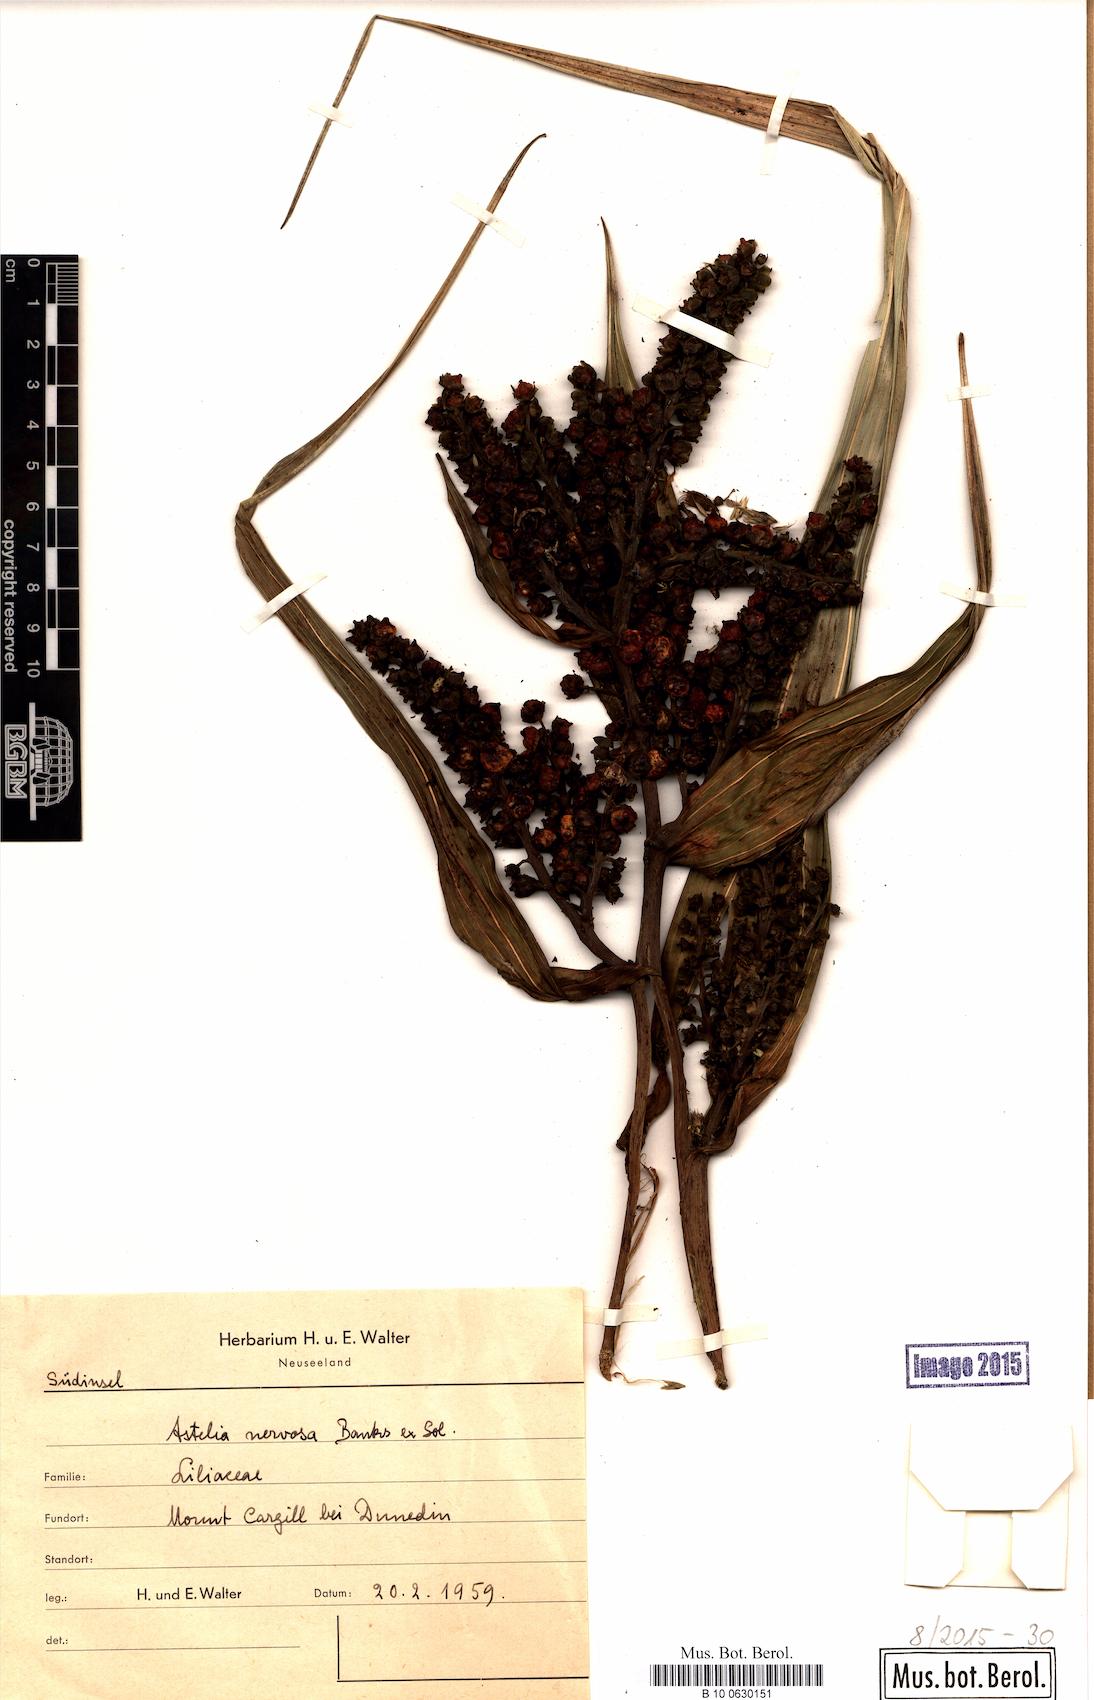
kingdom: Plantae
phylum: Tracheophyta
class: Liliopsida
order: Asparagales
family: Asteliaceae
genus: Astelia
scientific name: Astelia nervosa
